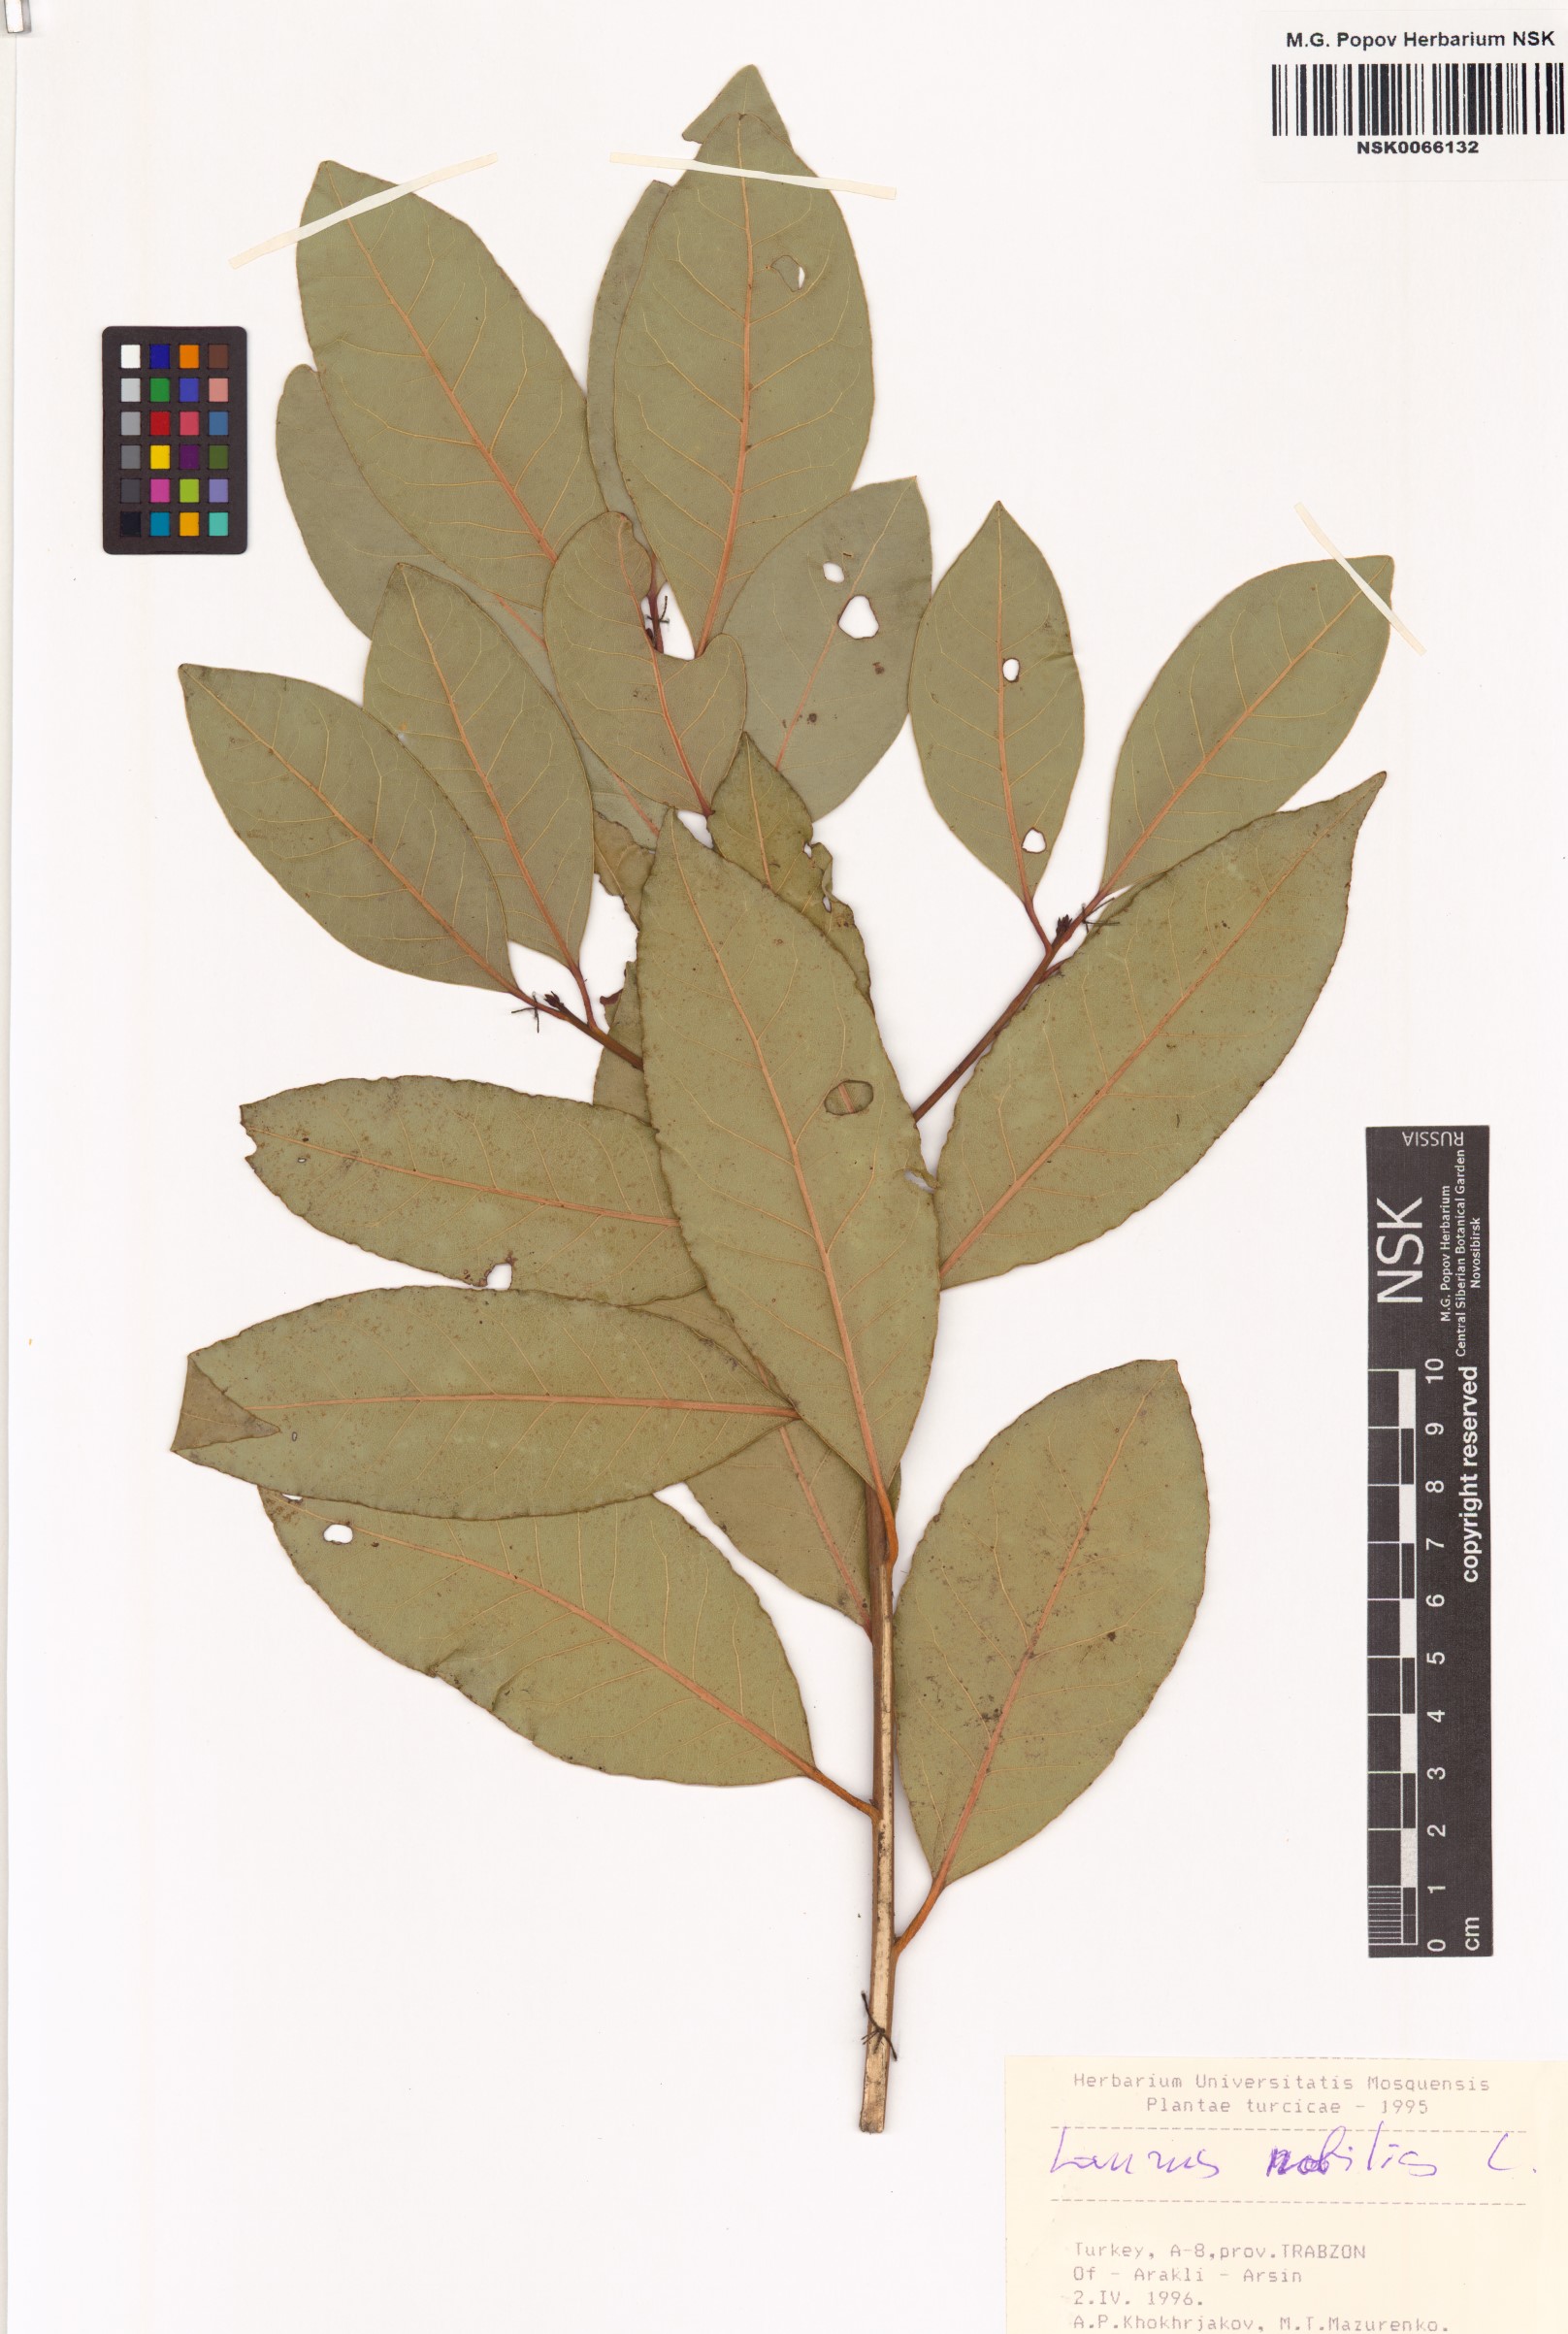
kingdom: Plantae
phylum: Tracheophyta
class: Magnoliopsida
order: Laurales
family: Lauraceae
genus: Laurus
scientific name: Laurus nobilis
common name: Bay
